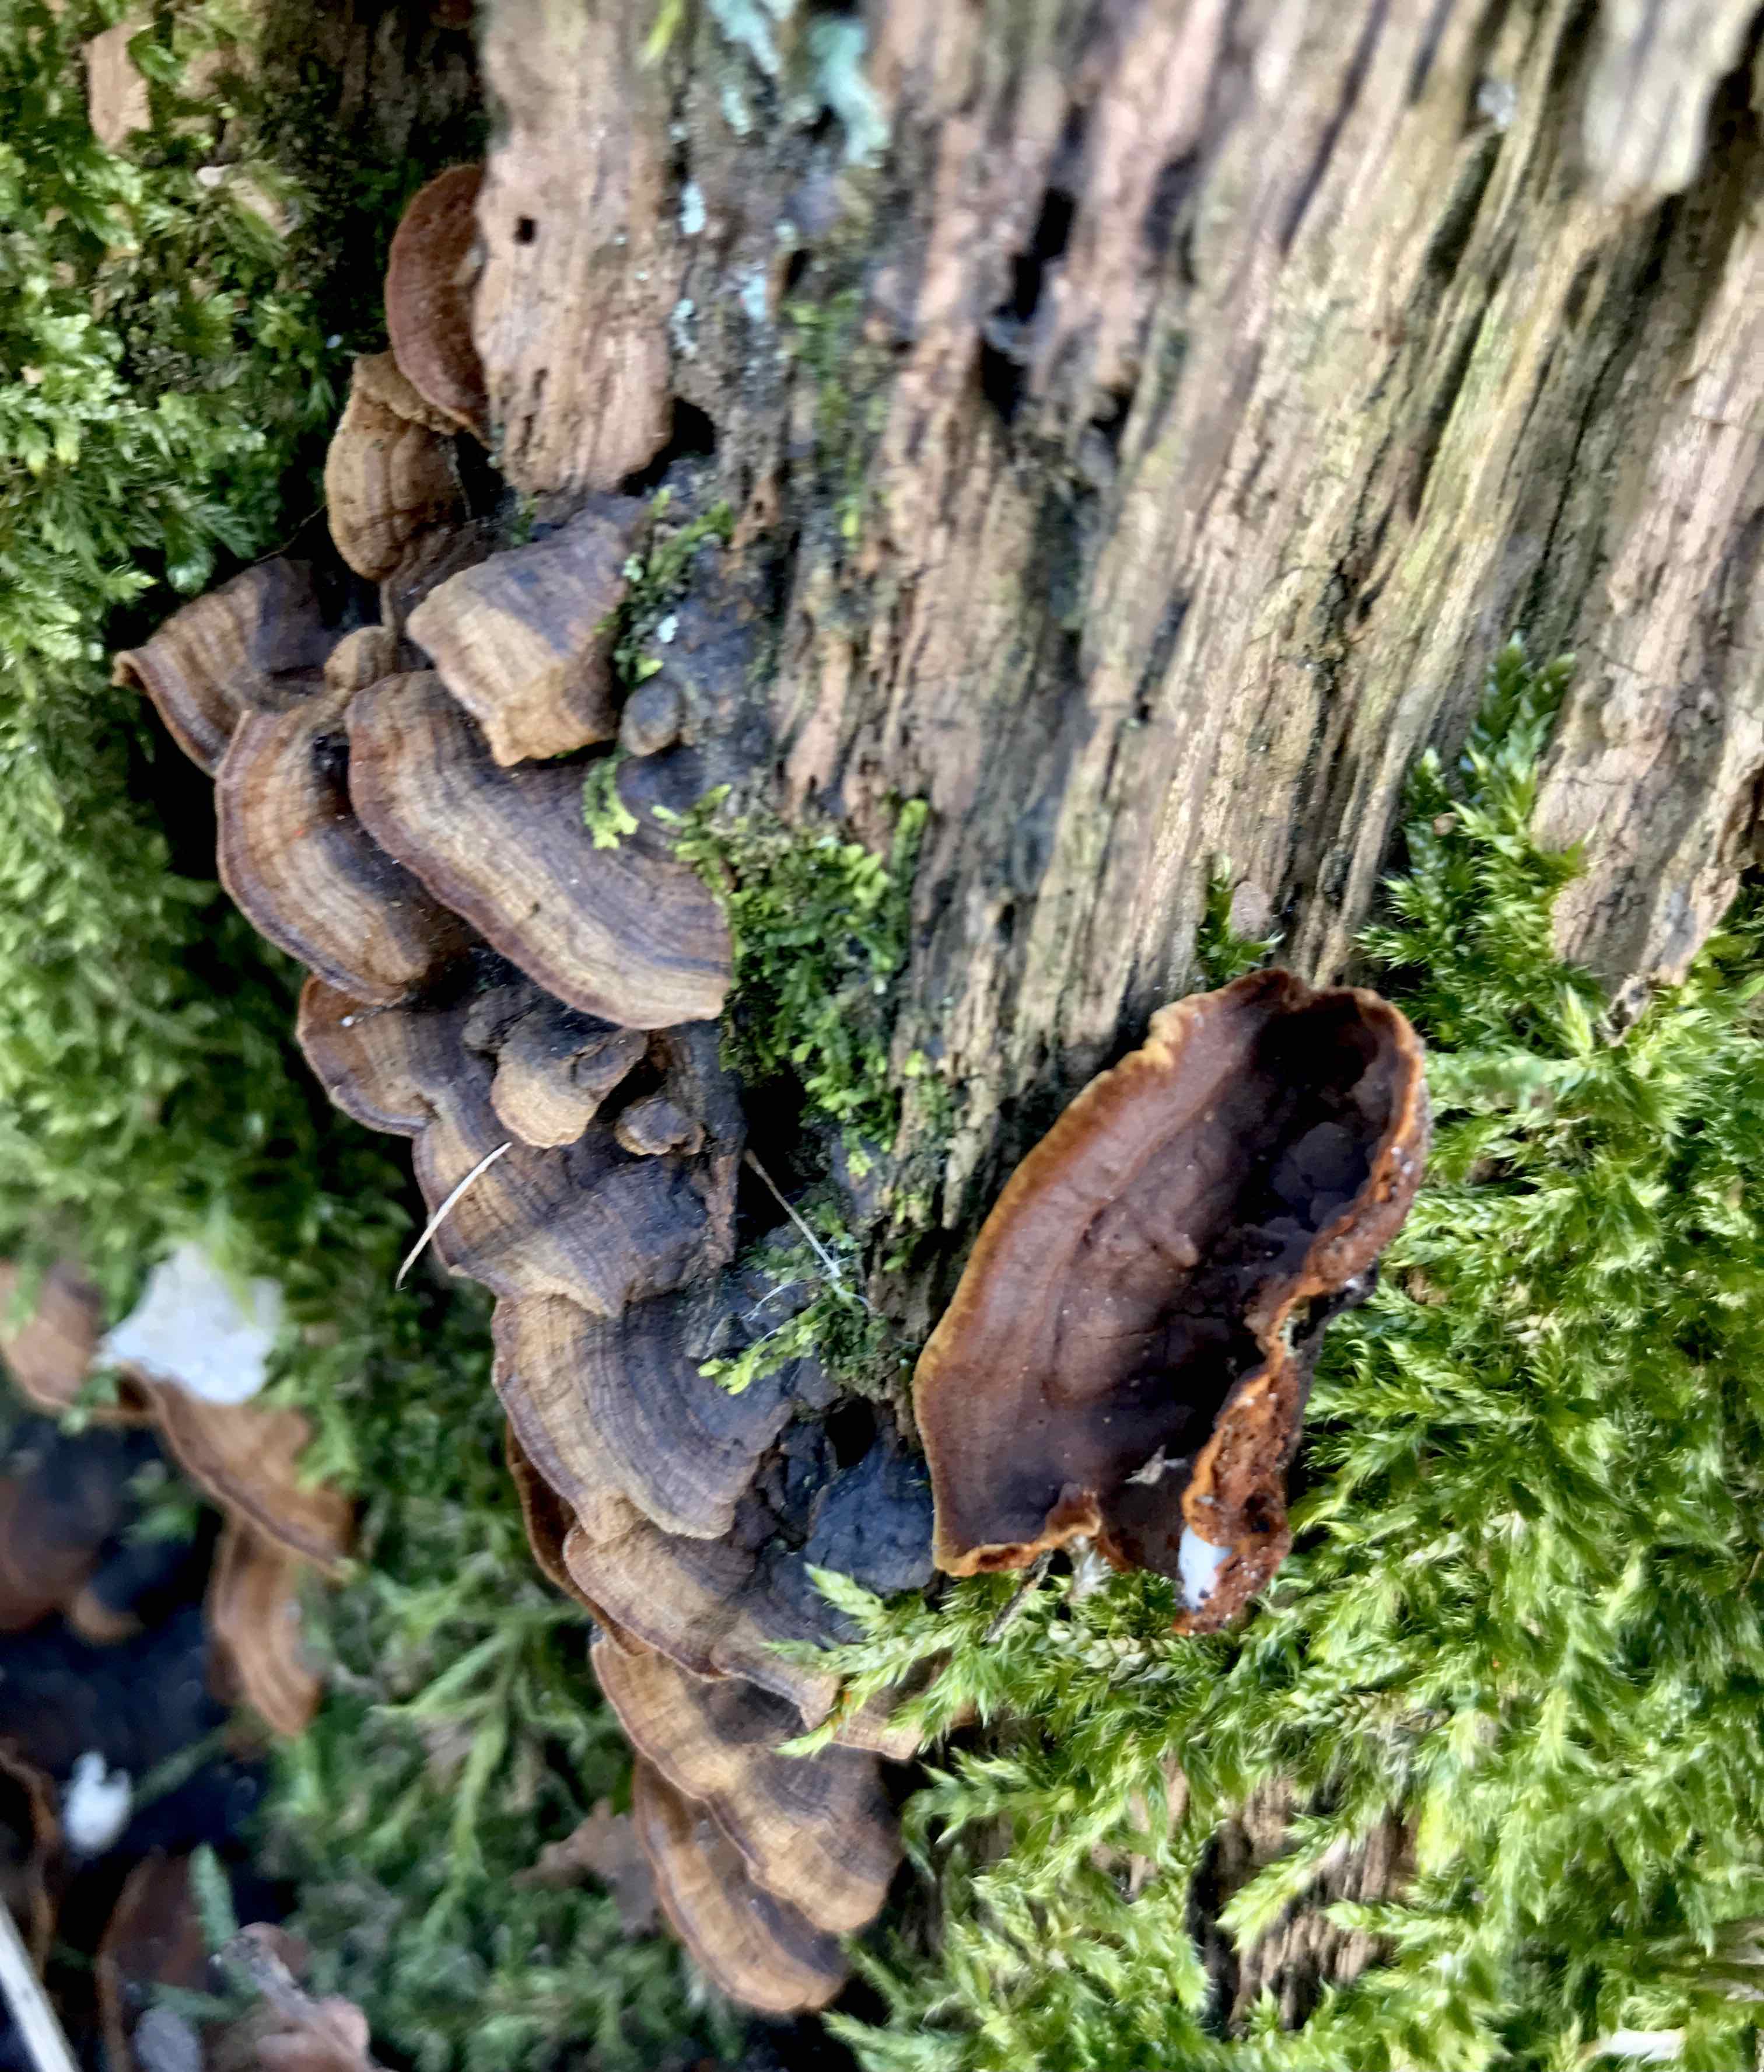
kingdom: Fungi
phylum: Basidiomycota
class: Agaricomycetes
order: Hymenochaetales
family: Hymenochaetaceae
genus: Hymenochaete
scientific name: Hymenochaete rubiginosa
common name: stiv ruslædersvamp
